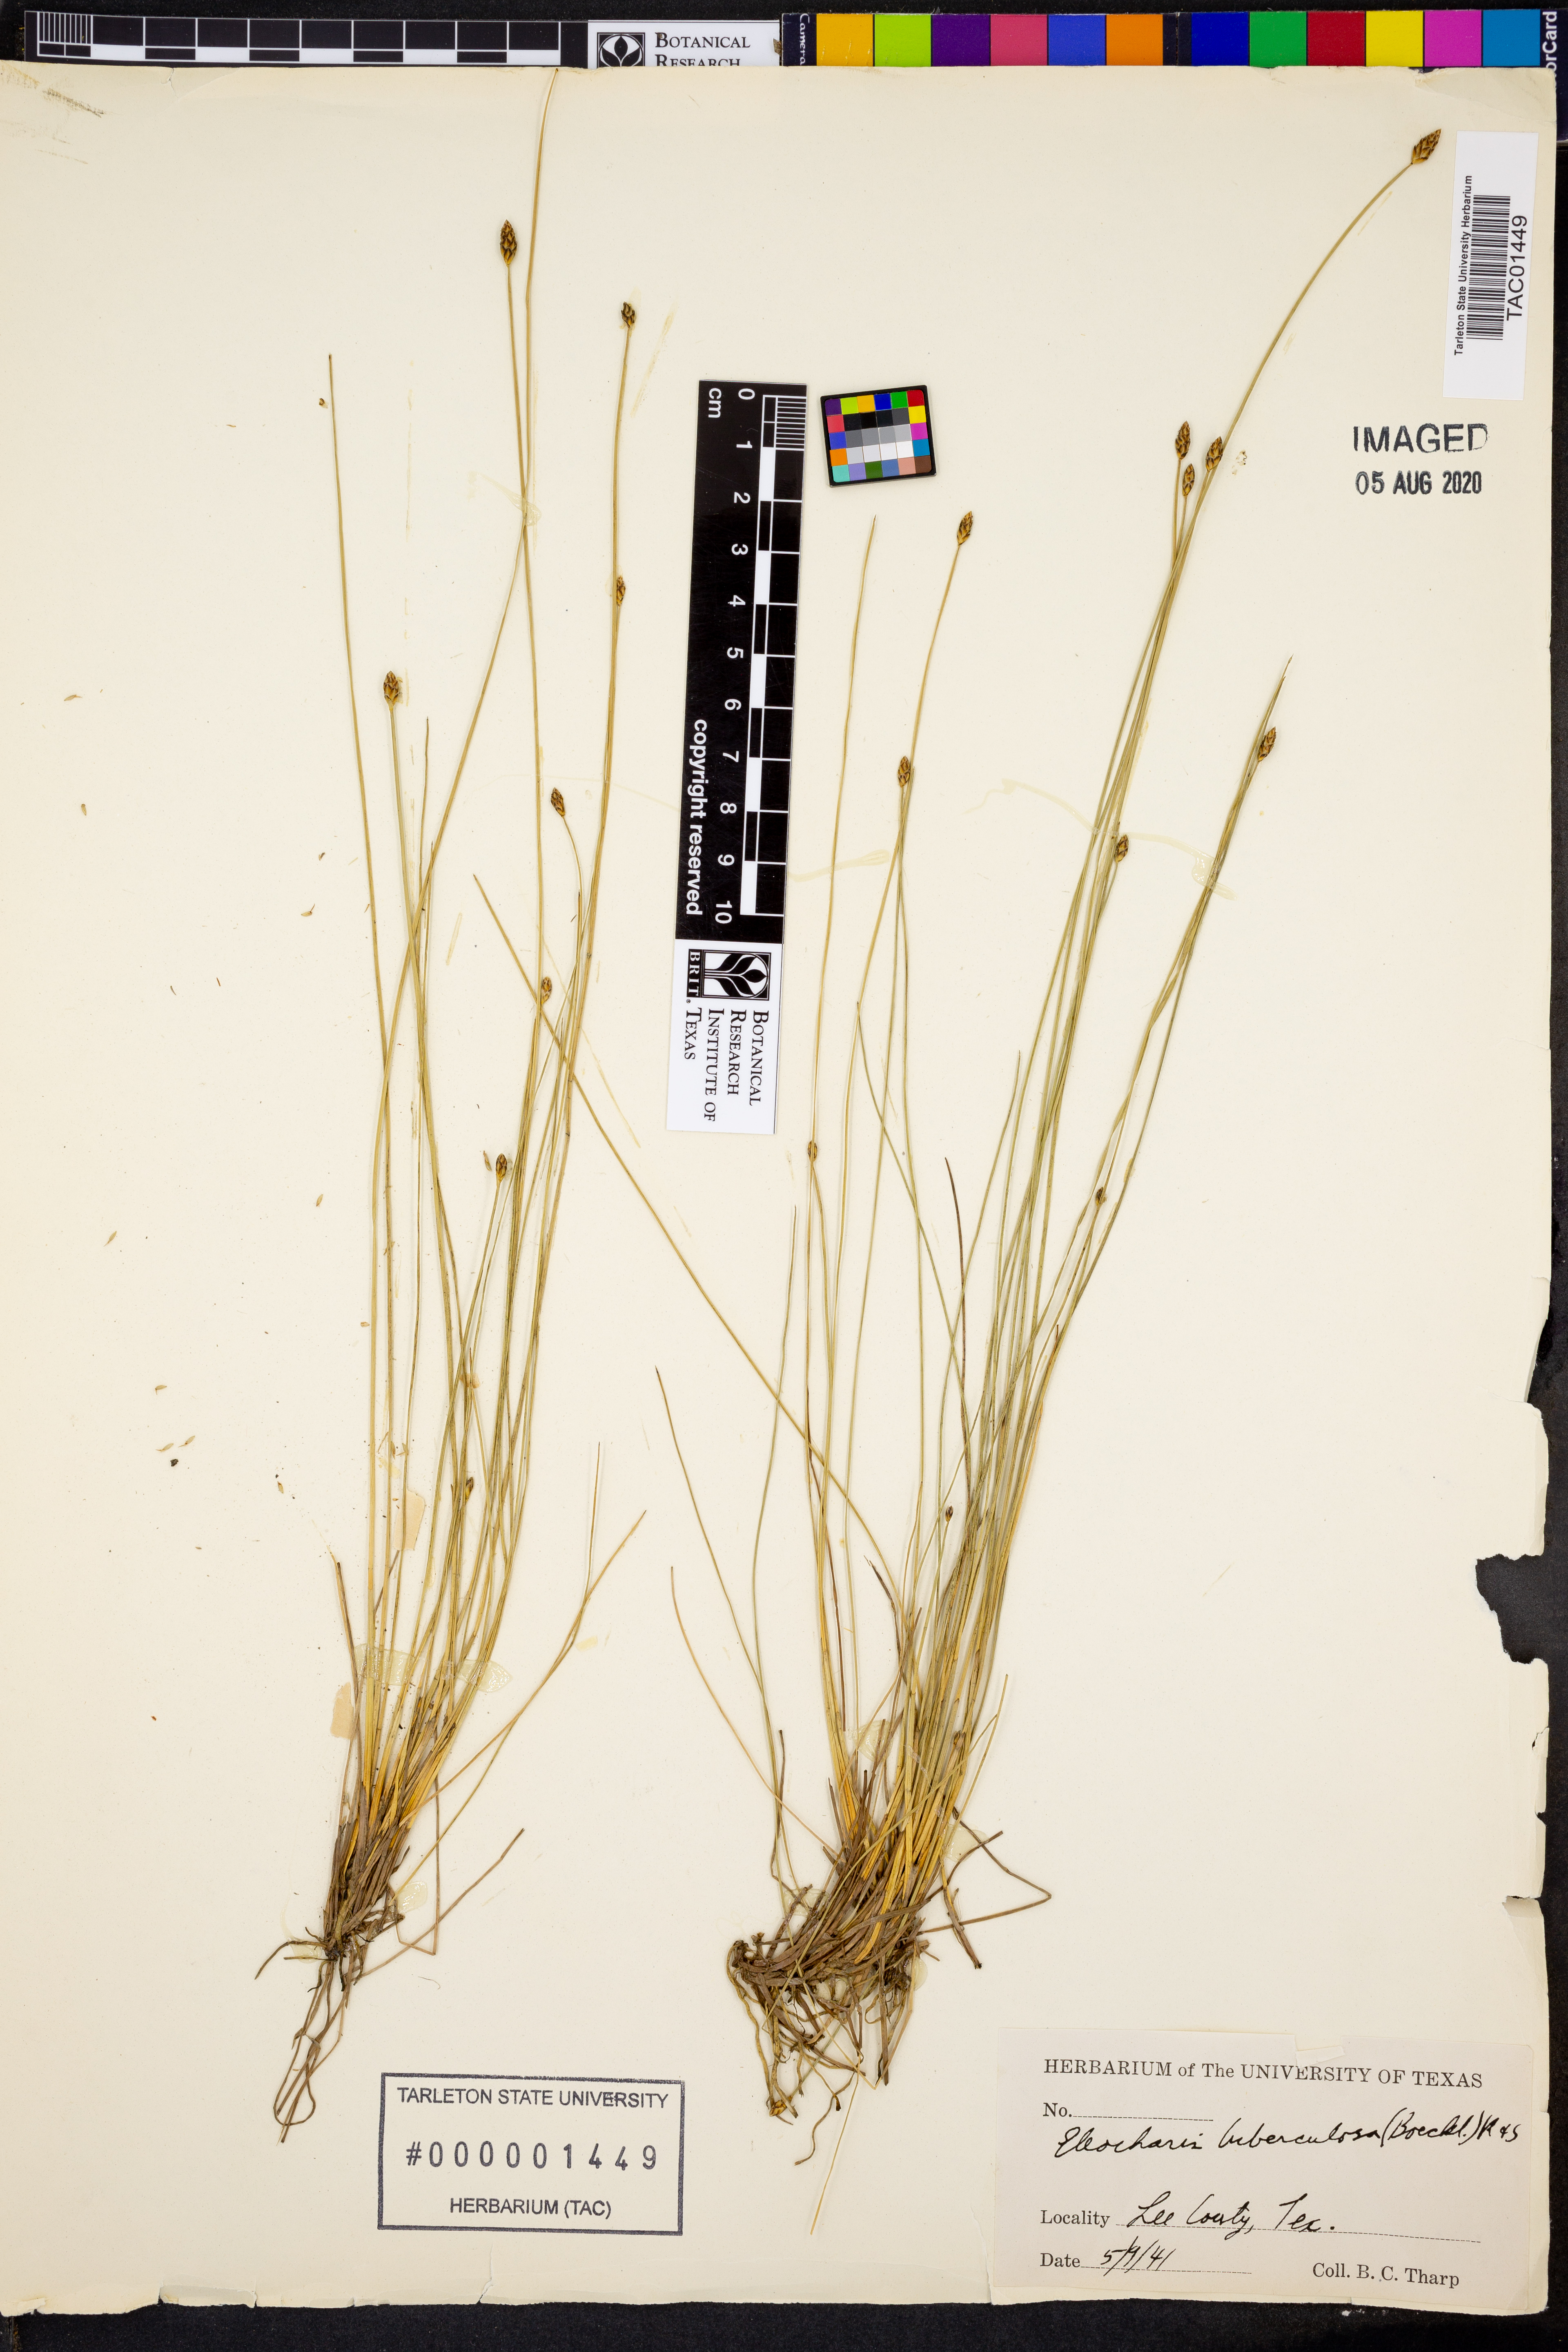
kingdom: Plantae
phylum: Tracheophyta
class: Liliopsida
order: Poales
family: Cyperaceae
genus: Eleocharis
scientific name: Eleocharis tuberculosa
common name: Cone-cup spikerush
